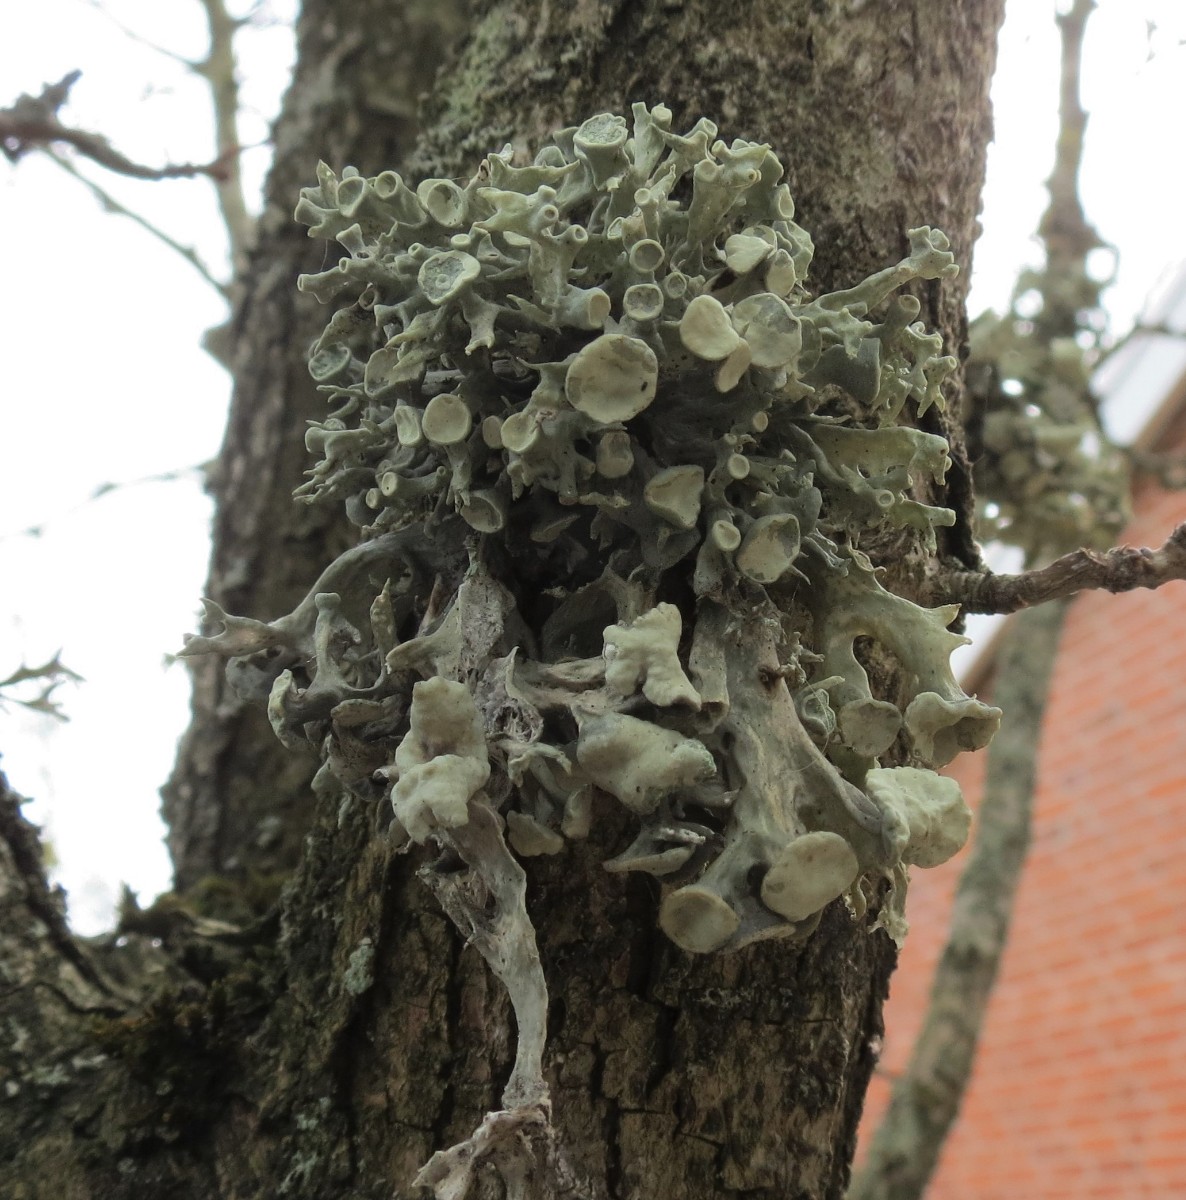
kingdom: Fungi
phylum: Ascomycota
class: Lecanoromycetes
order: Lecanorales
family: Ramalinaceae
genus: Ramalina
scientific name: Ramalina fastigiata
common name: tue-grenlav
